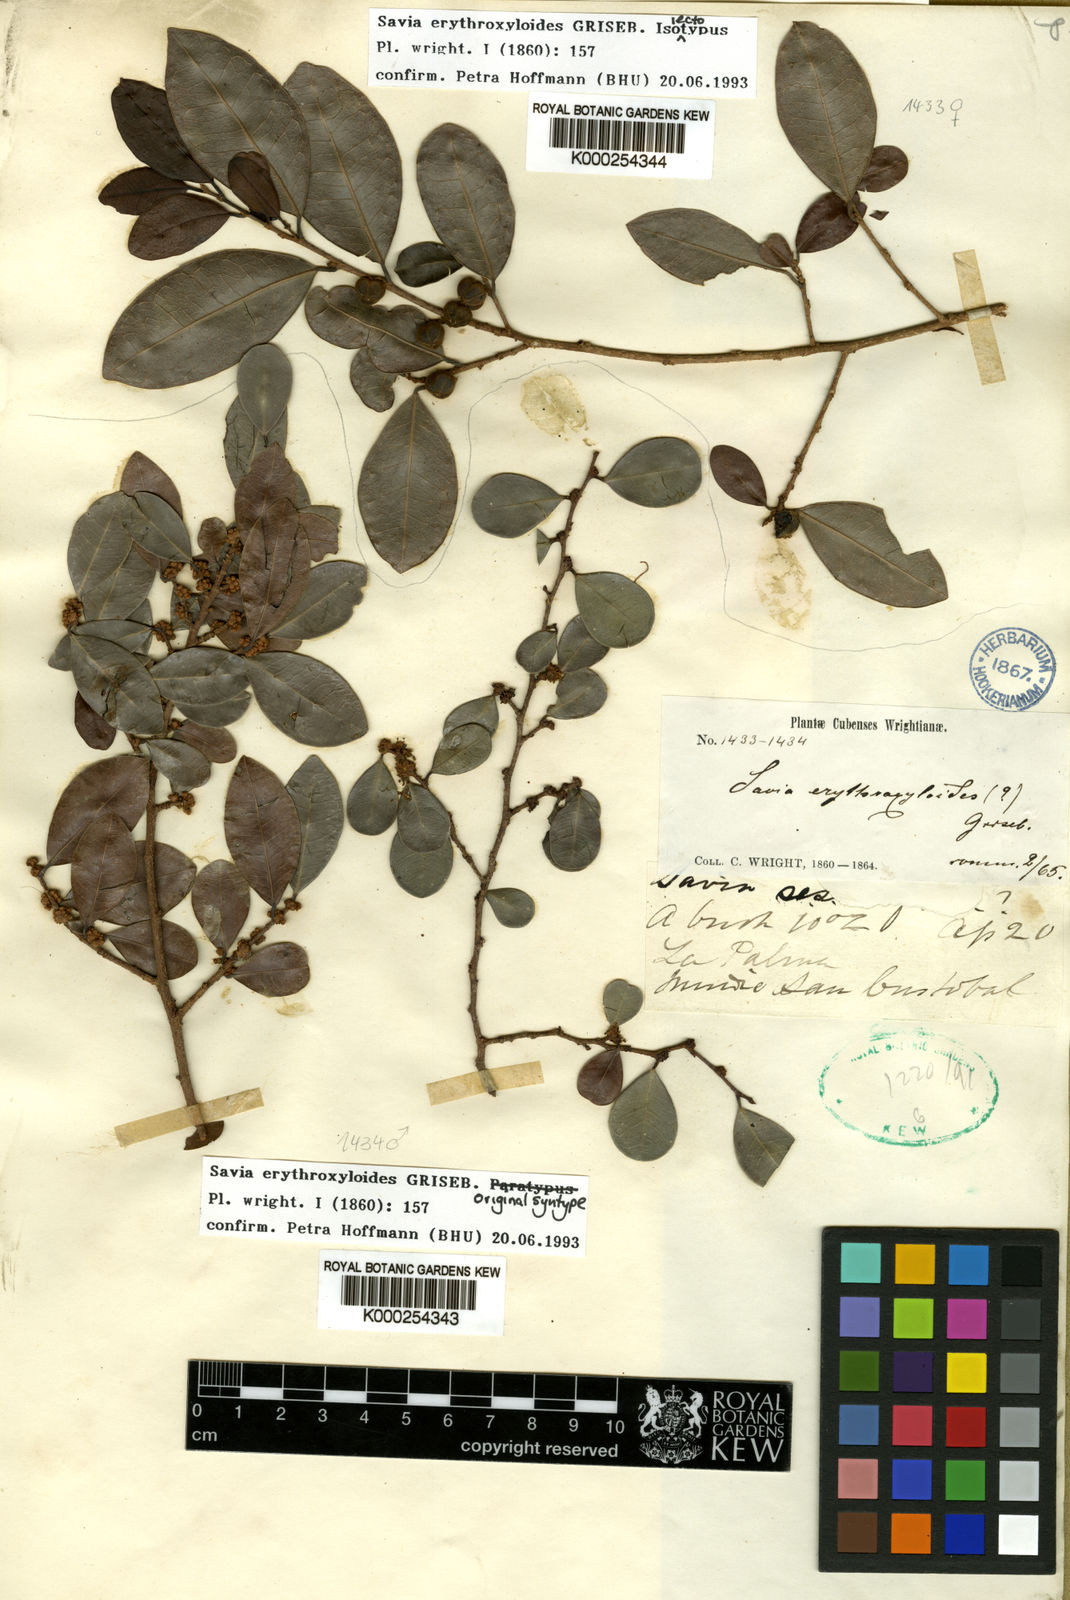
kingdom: Plantae
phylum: Tracheophyta
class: Magnoliopsida
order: Malpighiales
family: Phyllanthaceae
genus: Heterosavia
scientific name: Heterosavia erythroxyloides
